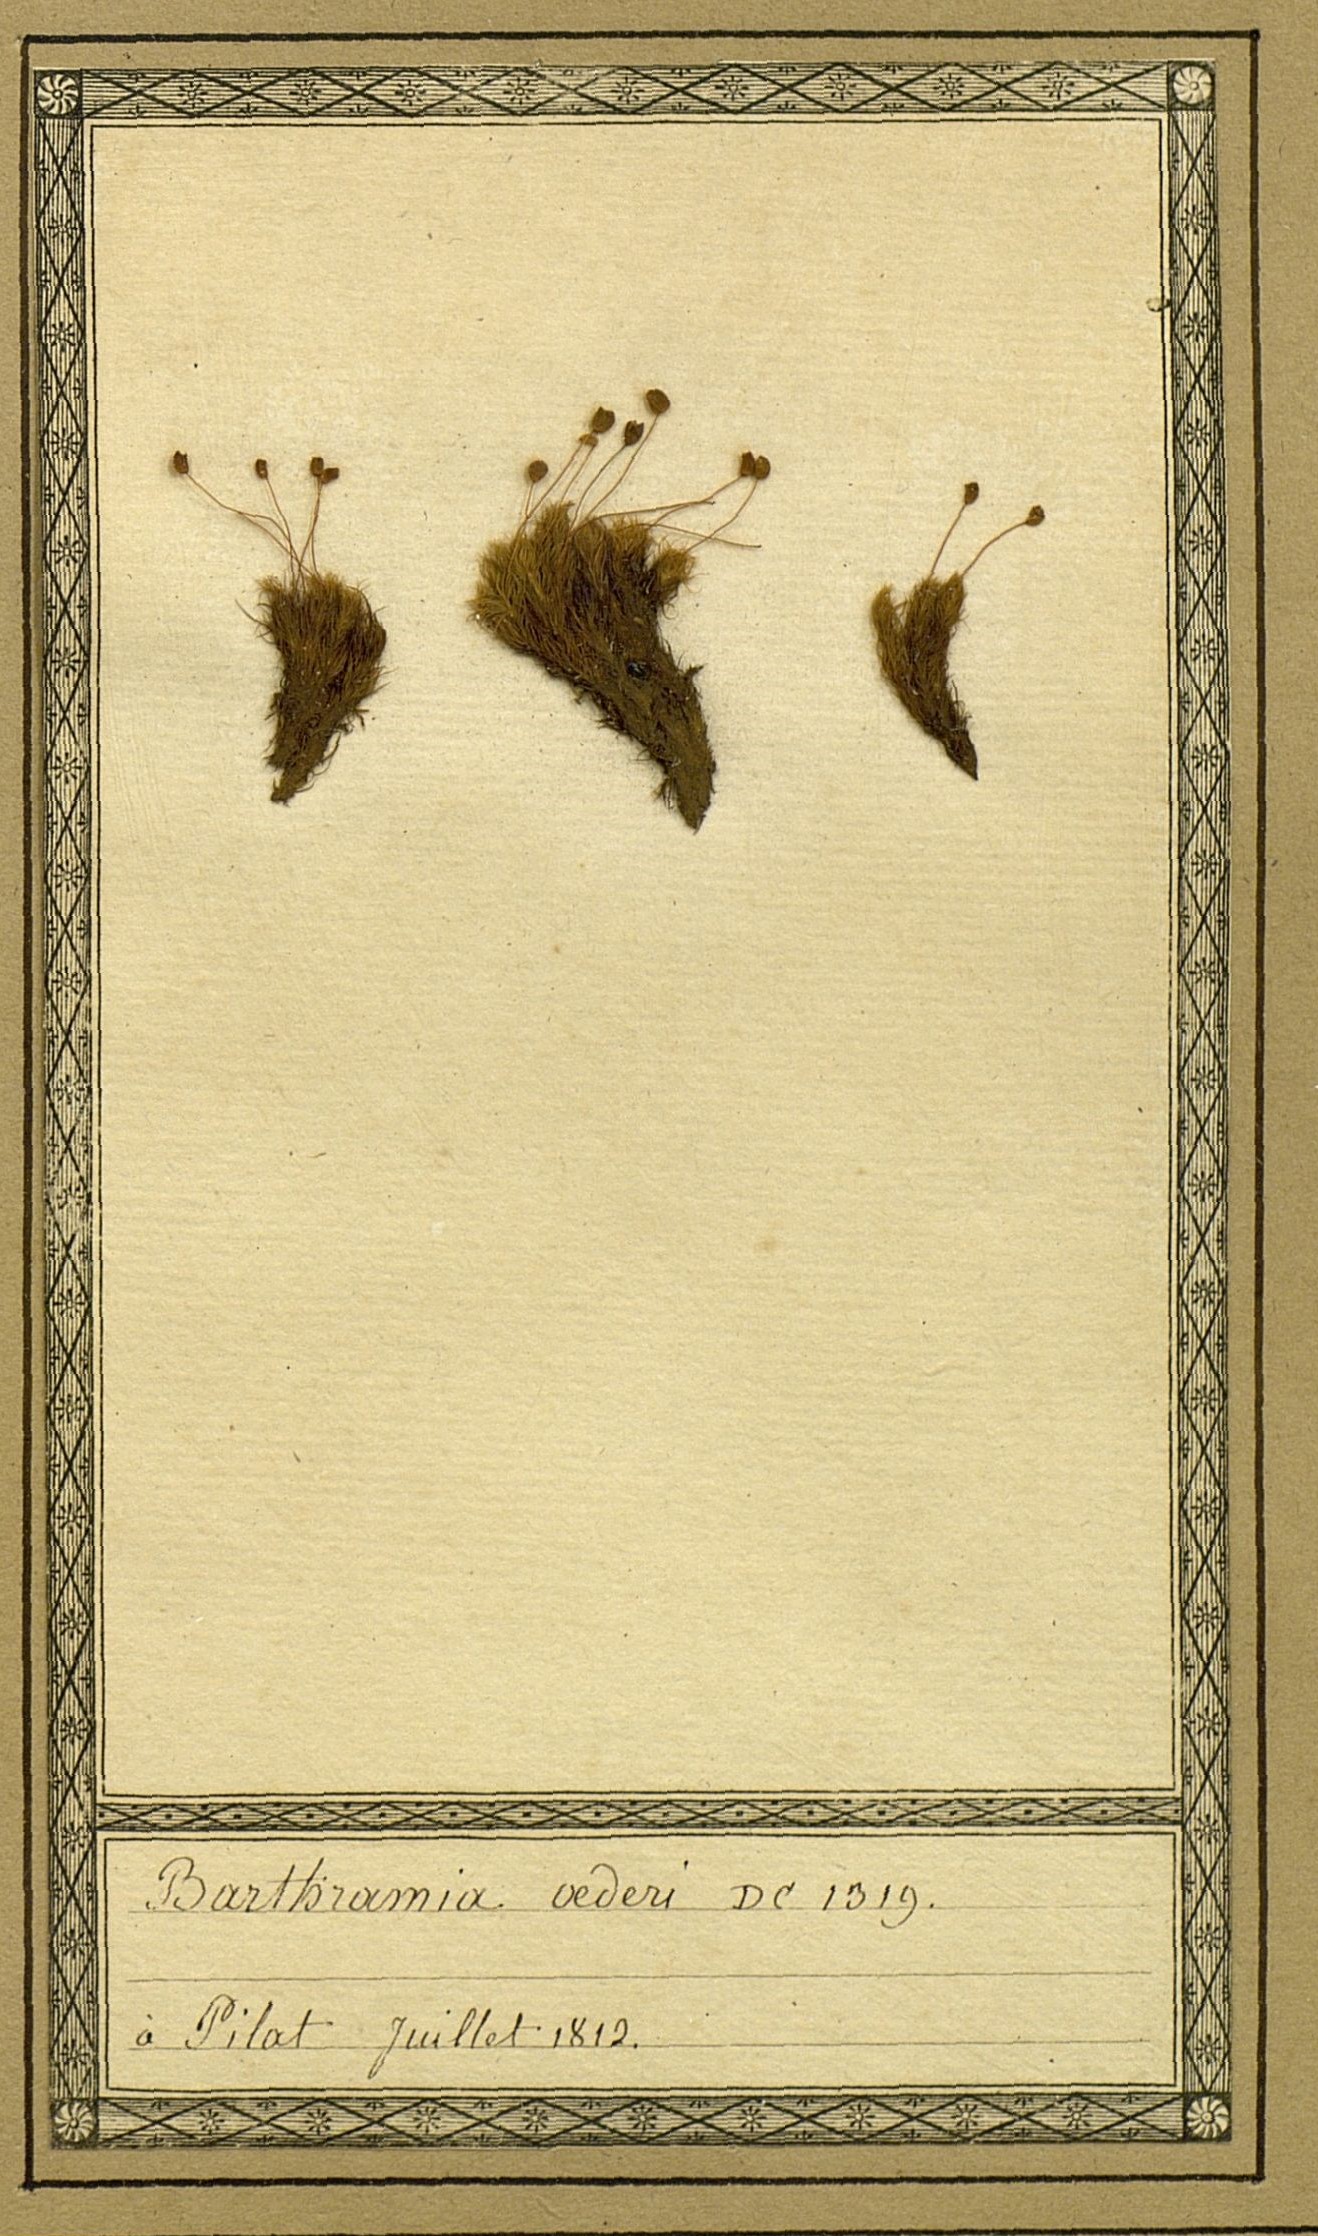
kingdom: Plantae
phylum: Bryophyta
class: Bryopsida
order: Bartramiales
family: Bartramiaceae
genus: Plagiopus
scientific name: Plagiopus oederianus
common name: Oeder's apple moss
